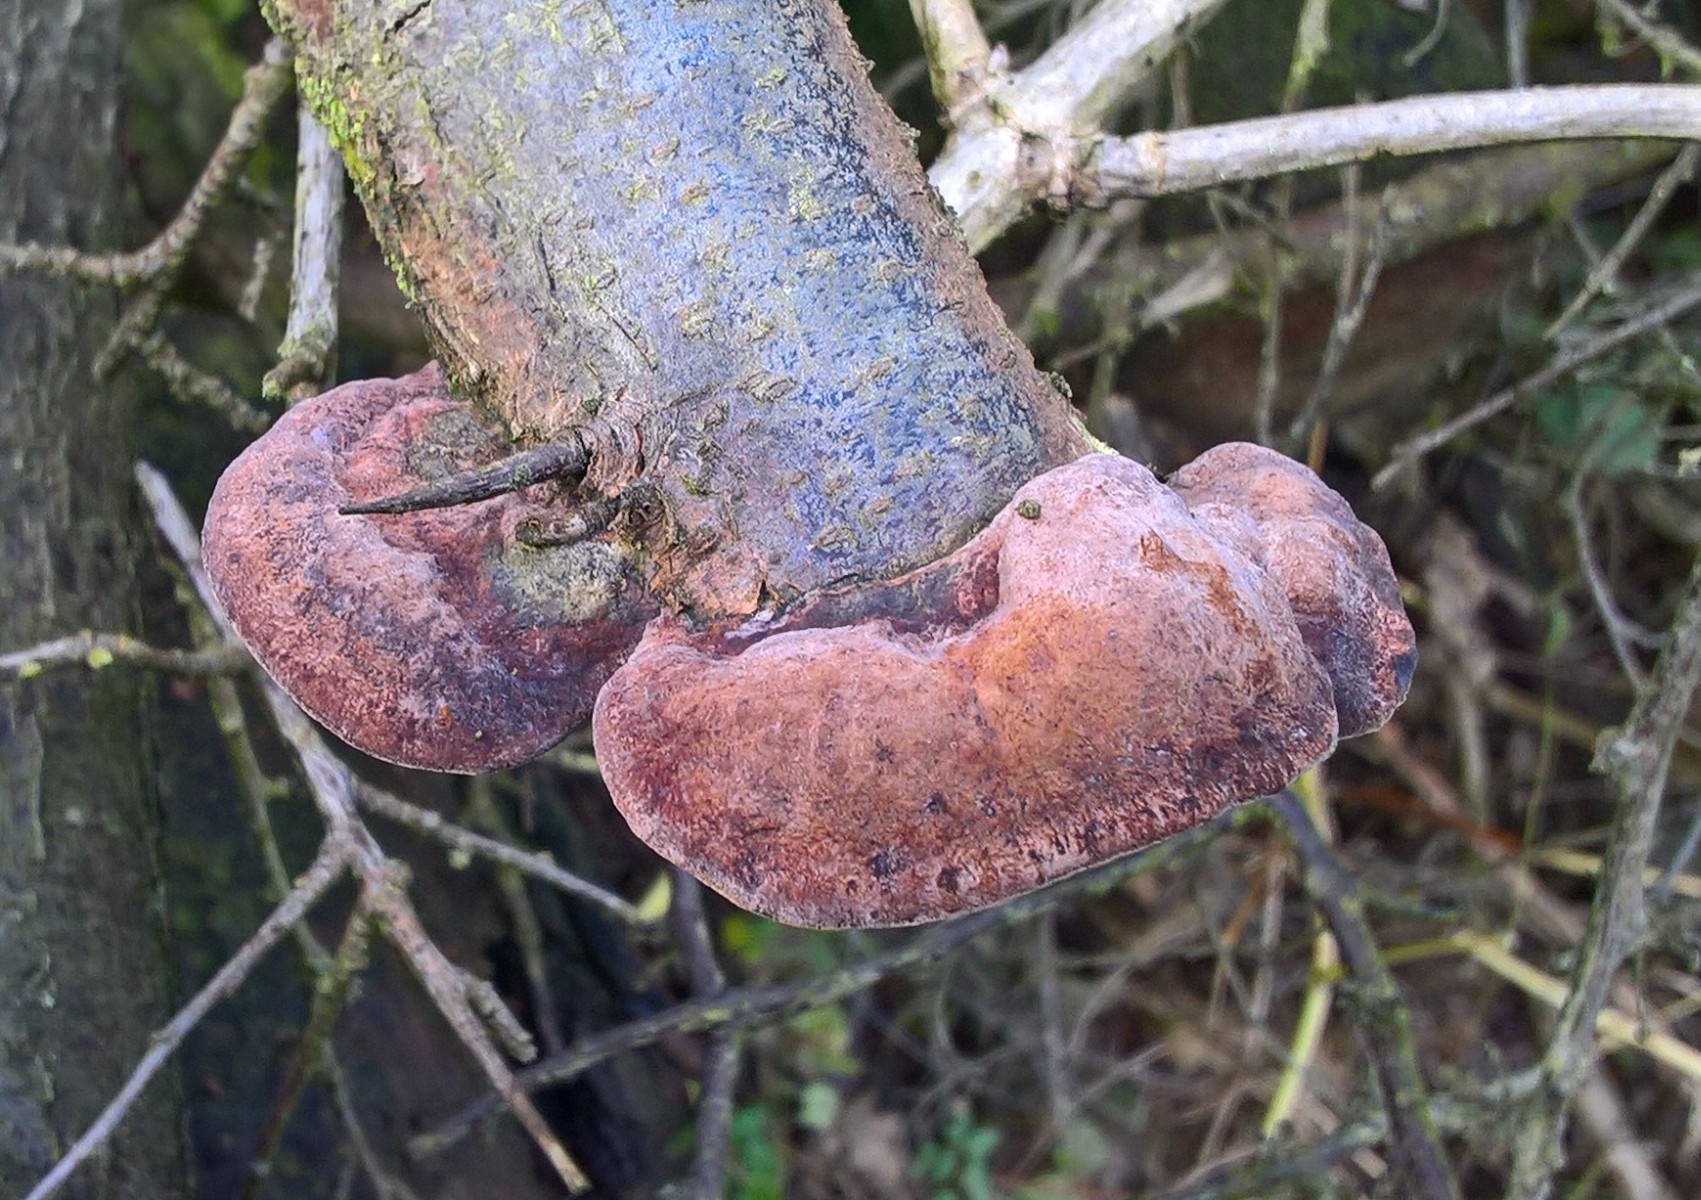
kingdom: Fungi
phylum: Basidiomycota
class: Agaricomycetes
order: Hymenochaetales
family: Hymenochaetaceae
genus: Phellinus
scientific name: Phellinus pomaceus
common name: blomme-ildporesvamp
